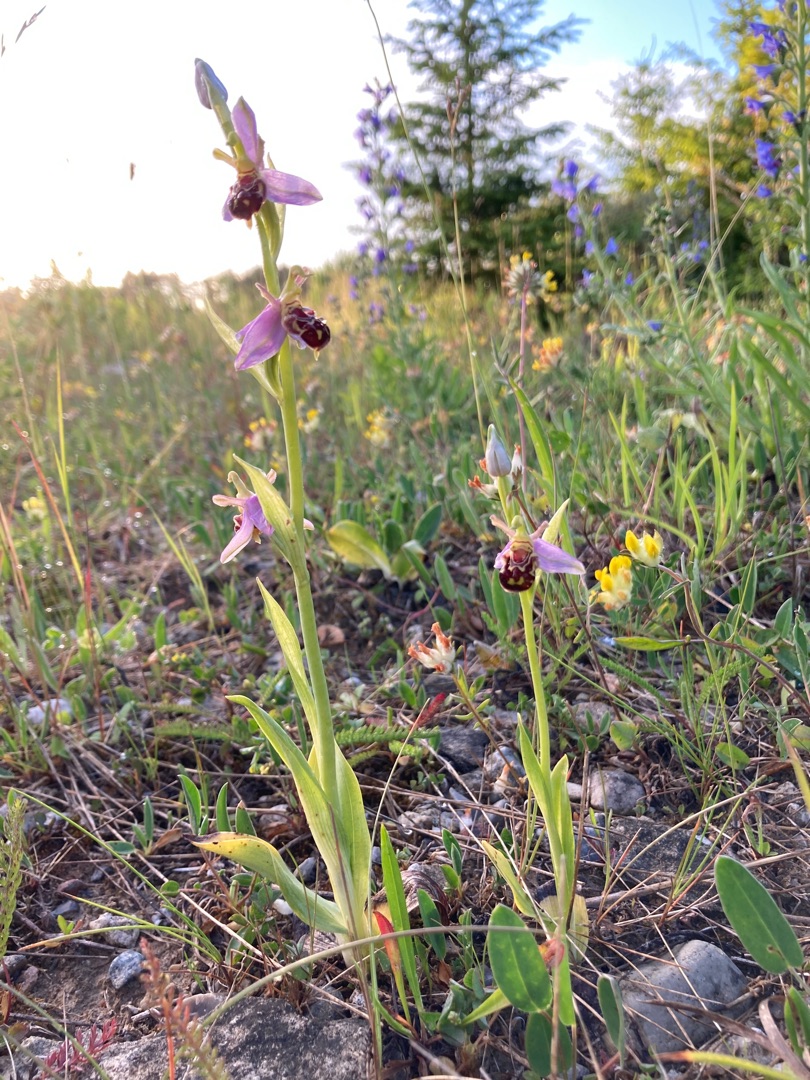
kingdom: Plantae
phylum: Tracheophyta
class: Liliopsida
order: Asparagales
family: Orchidaceae
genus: Ophrys
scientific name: Ophrys apifera
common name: Biblomst
